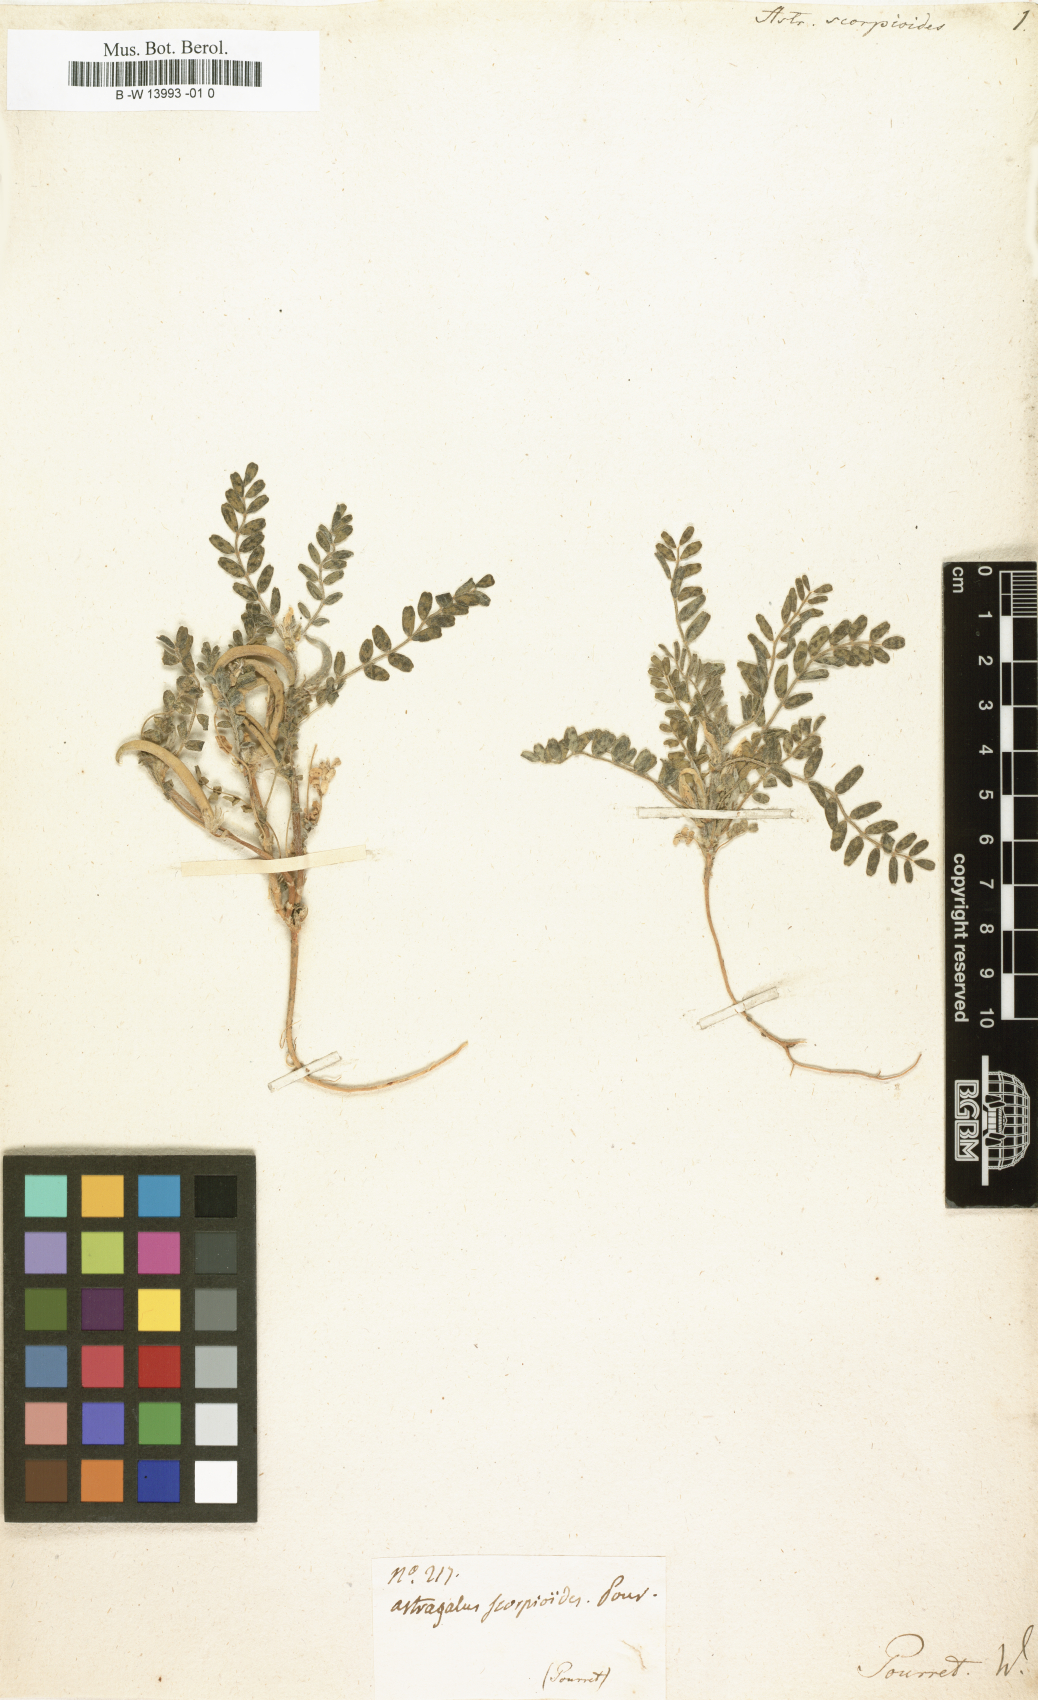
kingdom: Plantae
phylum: Tracheophyta
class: Magnoliopsida
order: Fabales
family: Fabaceae
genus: Astragalus
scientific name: Astragalus scorpioides
